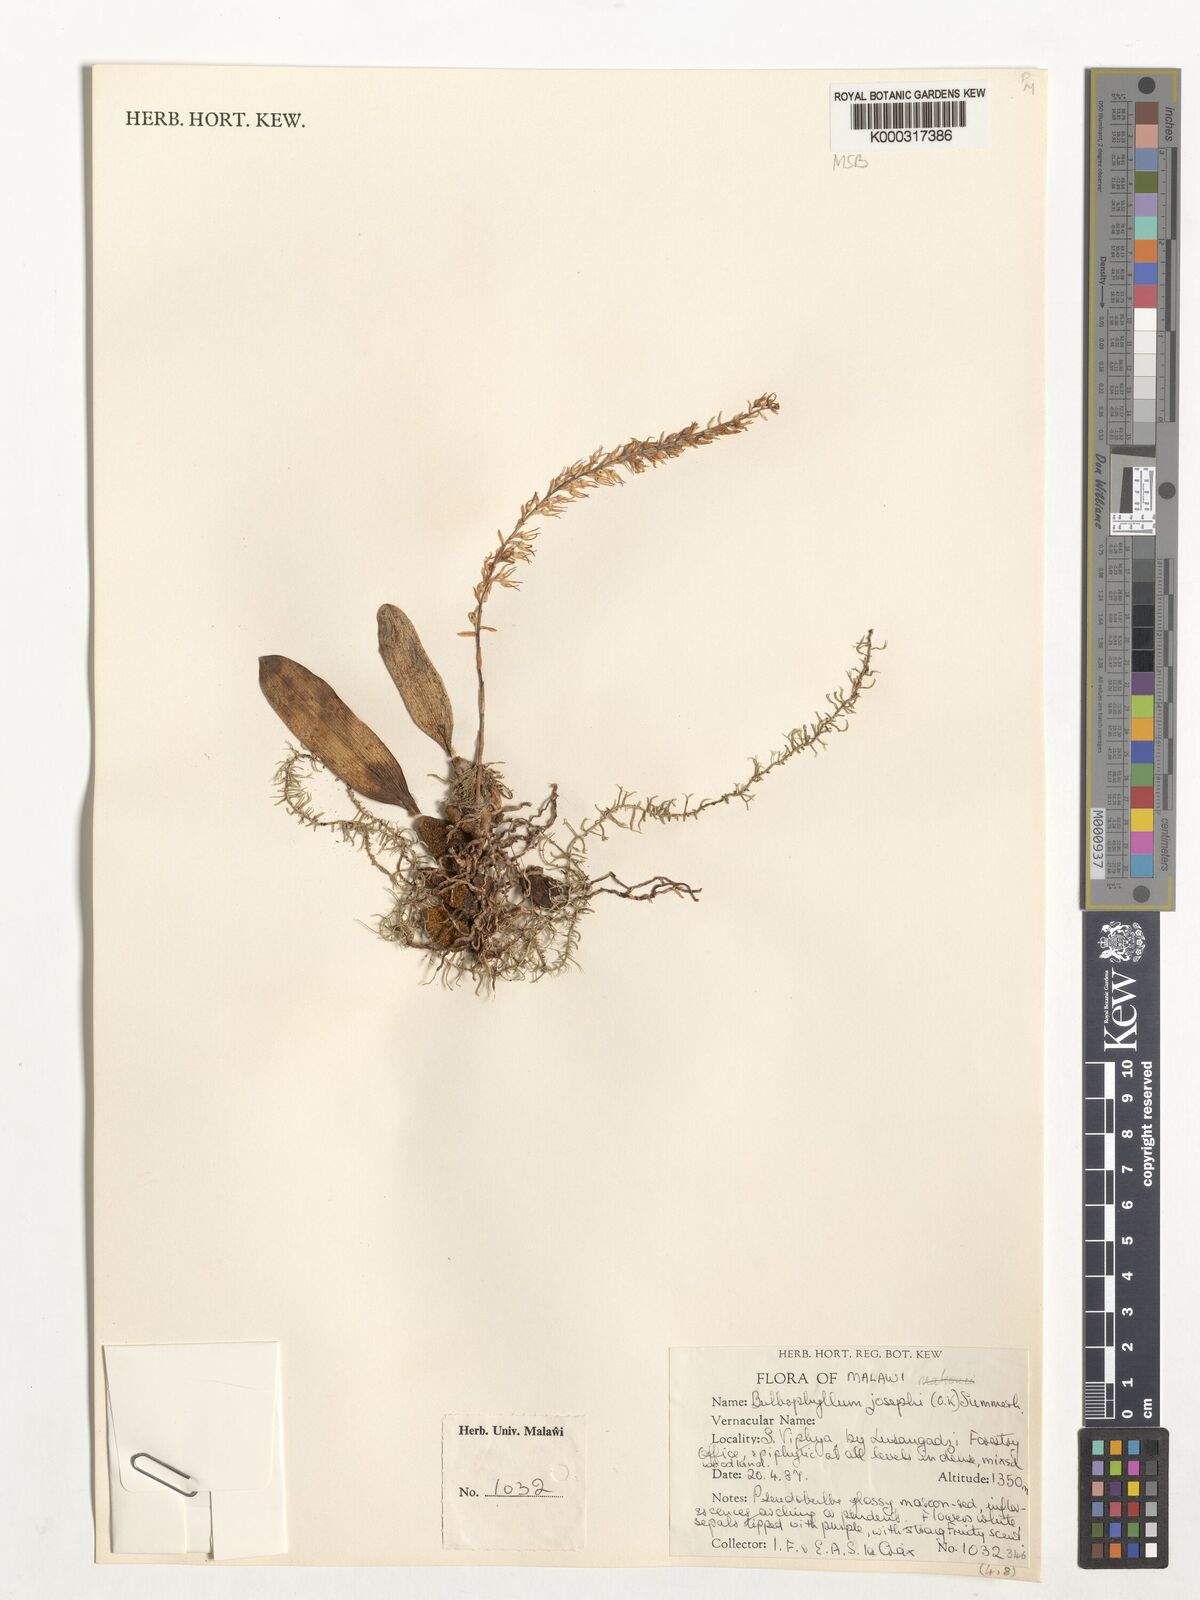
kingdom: Plantae
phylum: Tracheophyta
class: Liliopsida
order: Asparagales
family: Orchidaceae
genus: Bulbophyllum
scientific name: Bulbophyllum josephi
